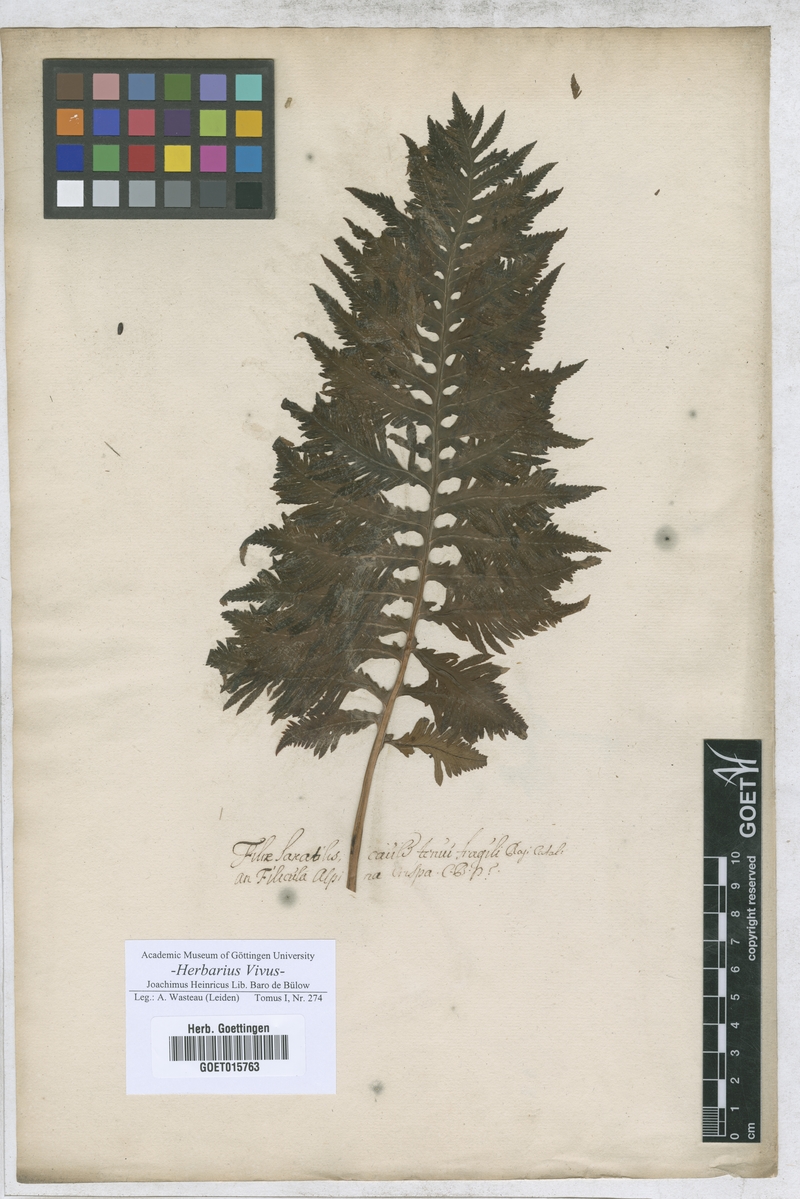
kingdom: Plantae
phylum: Tracheophyta
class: Polypodiopsida
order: Polypodiales
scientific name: Polypodiales
